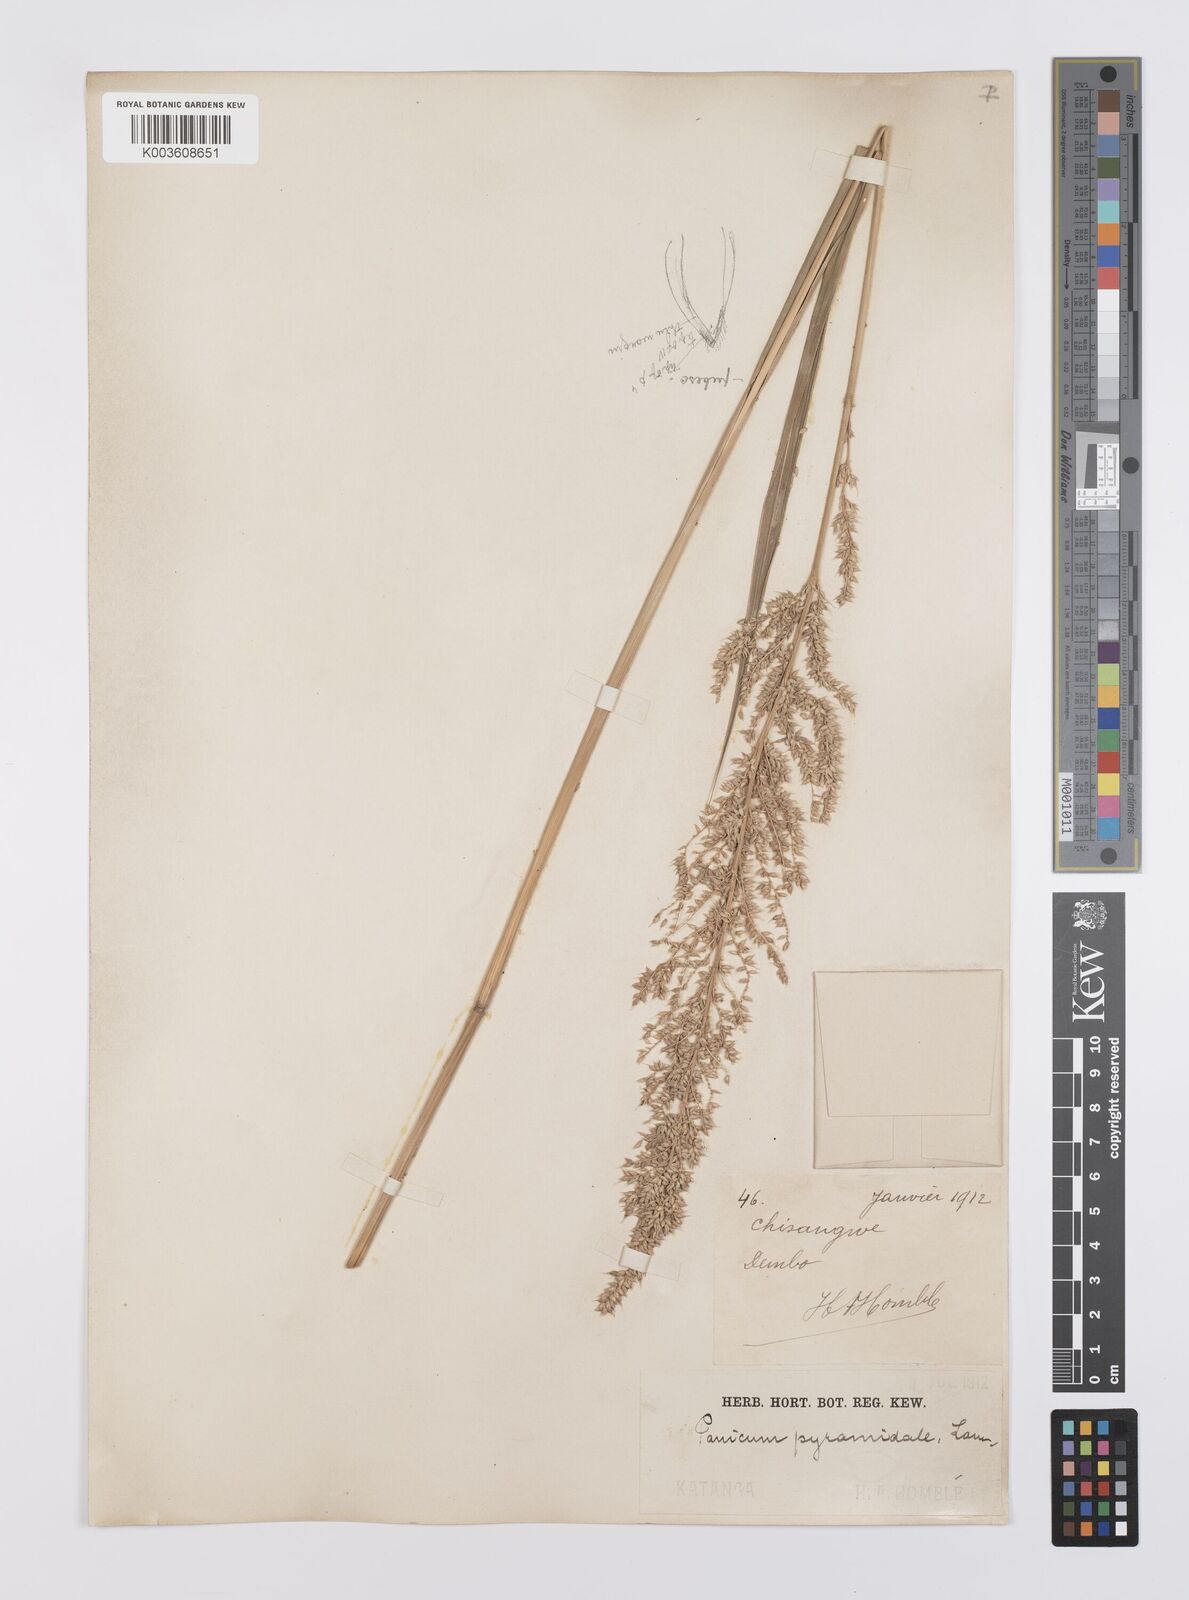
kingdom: Plantae
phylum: Tracheophyta
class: Liliopsida
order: Poales
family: Poaceae
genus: Echinochloa
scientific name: Echinochloa crus-pavonis
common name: Gulf cockspur grass
